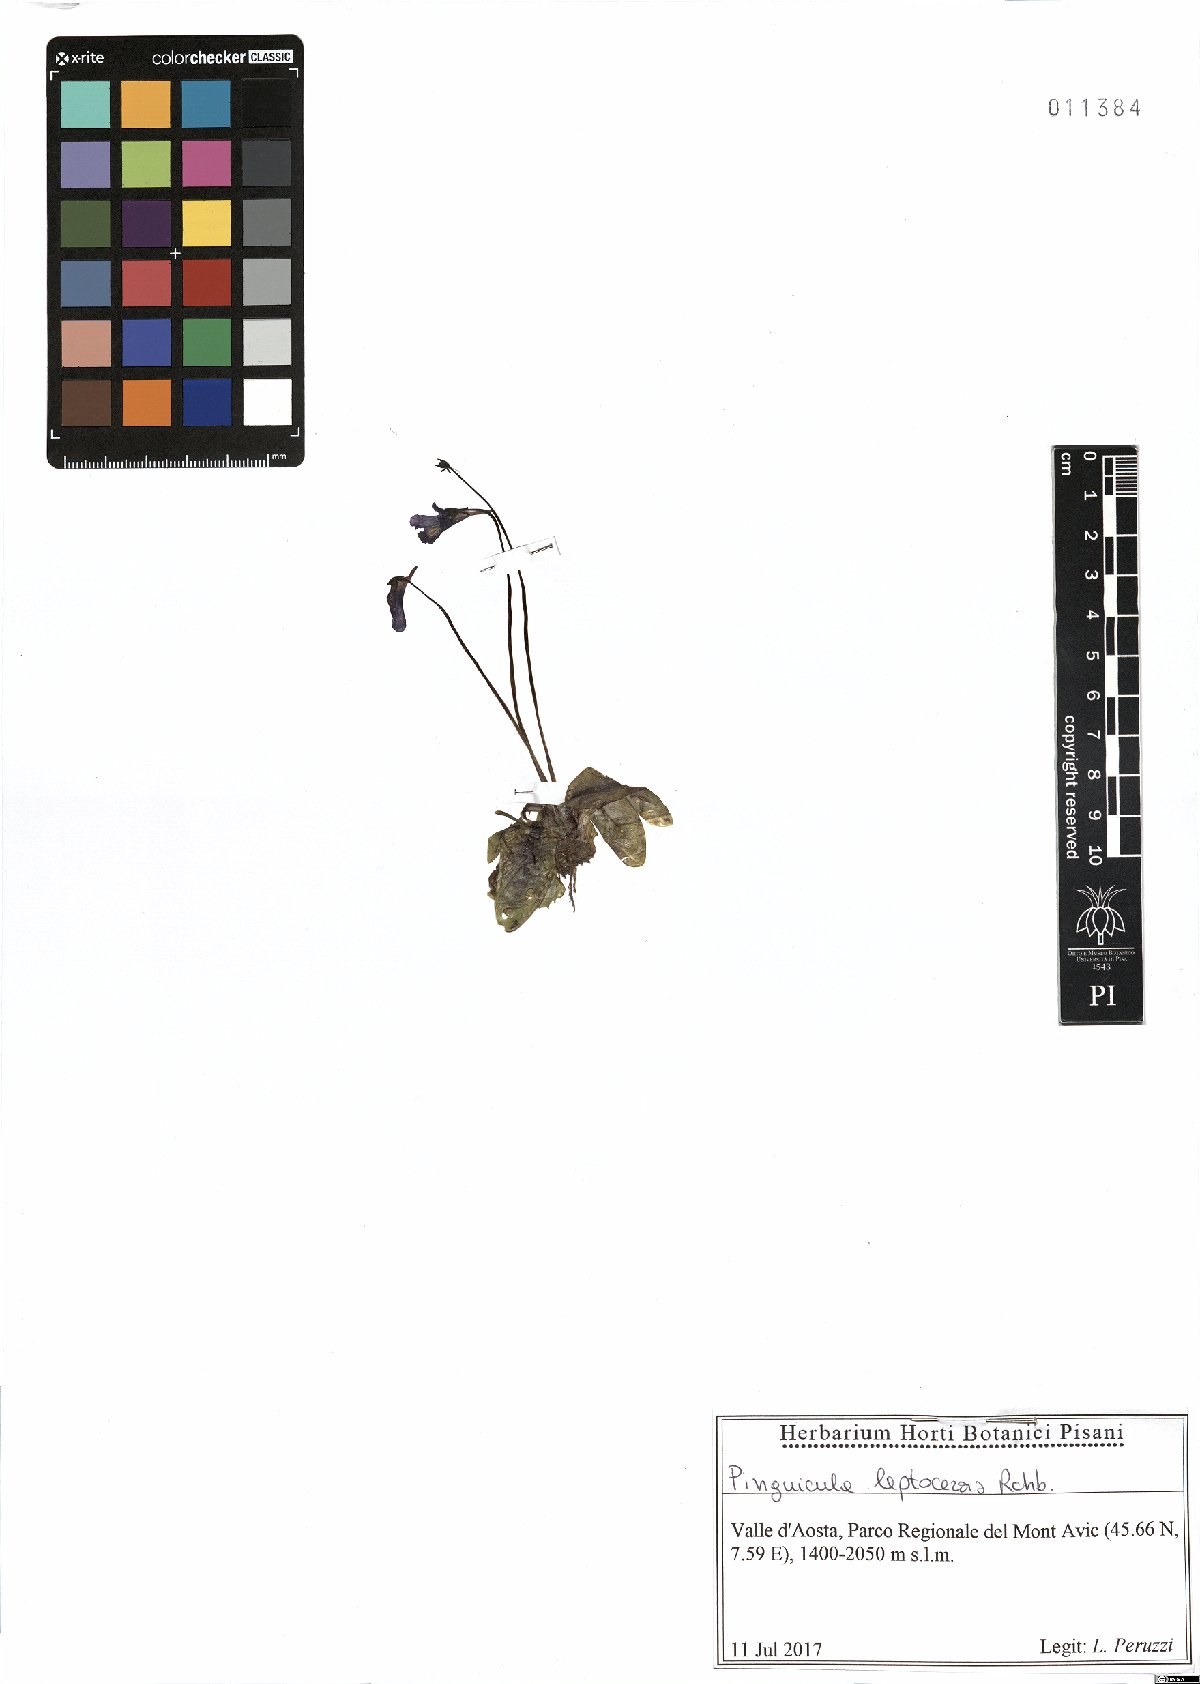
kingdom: Plantae
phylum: Tracheophyta
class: Magnoliopsida
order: Lamiales
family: Lentibulariaceae
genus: Pinguicula
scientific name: Pinguicula leptoceras
